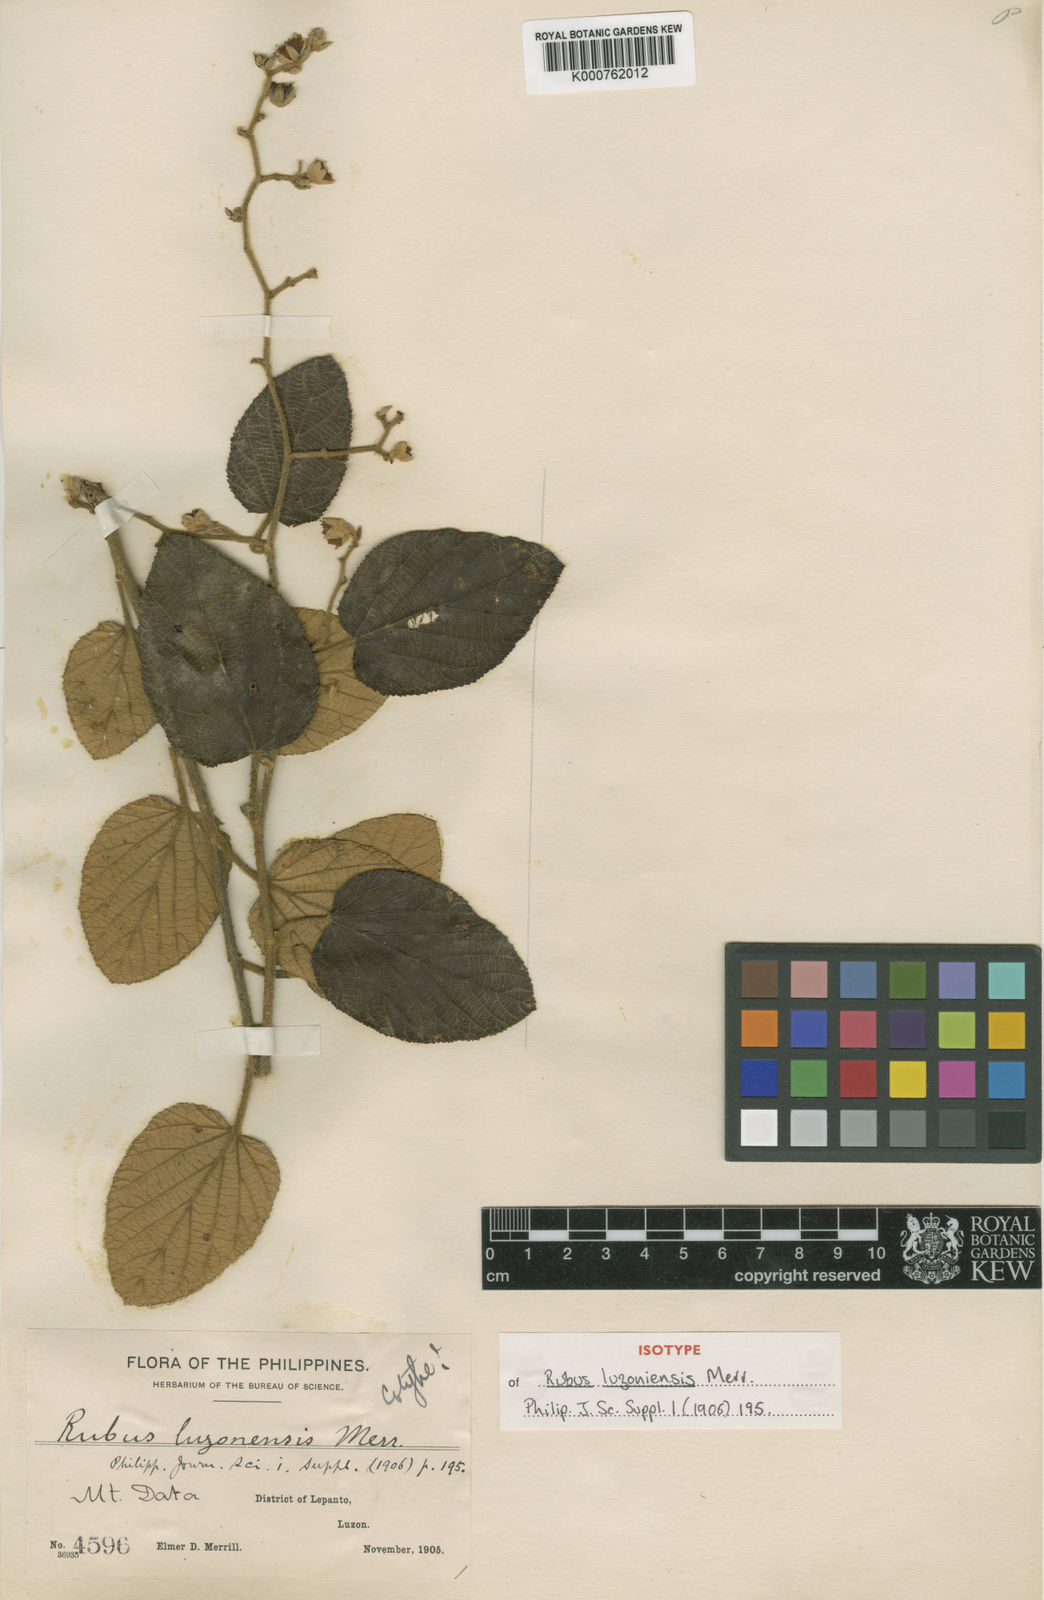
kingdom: Plantae
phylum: Tracheophyta
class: Magnoliopsida
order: Rosales
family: Rosaceae
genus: Rubus
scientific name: Rubus luzoniensis
